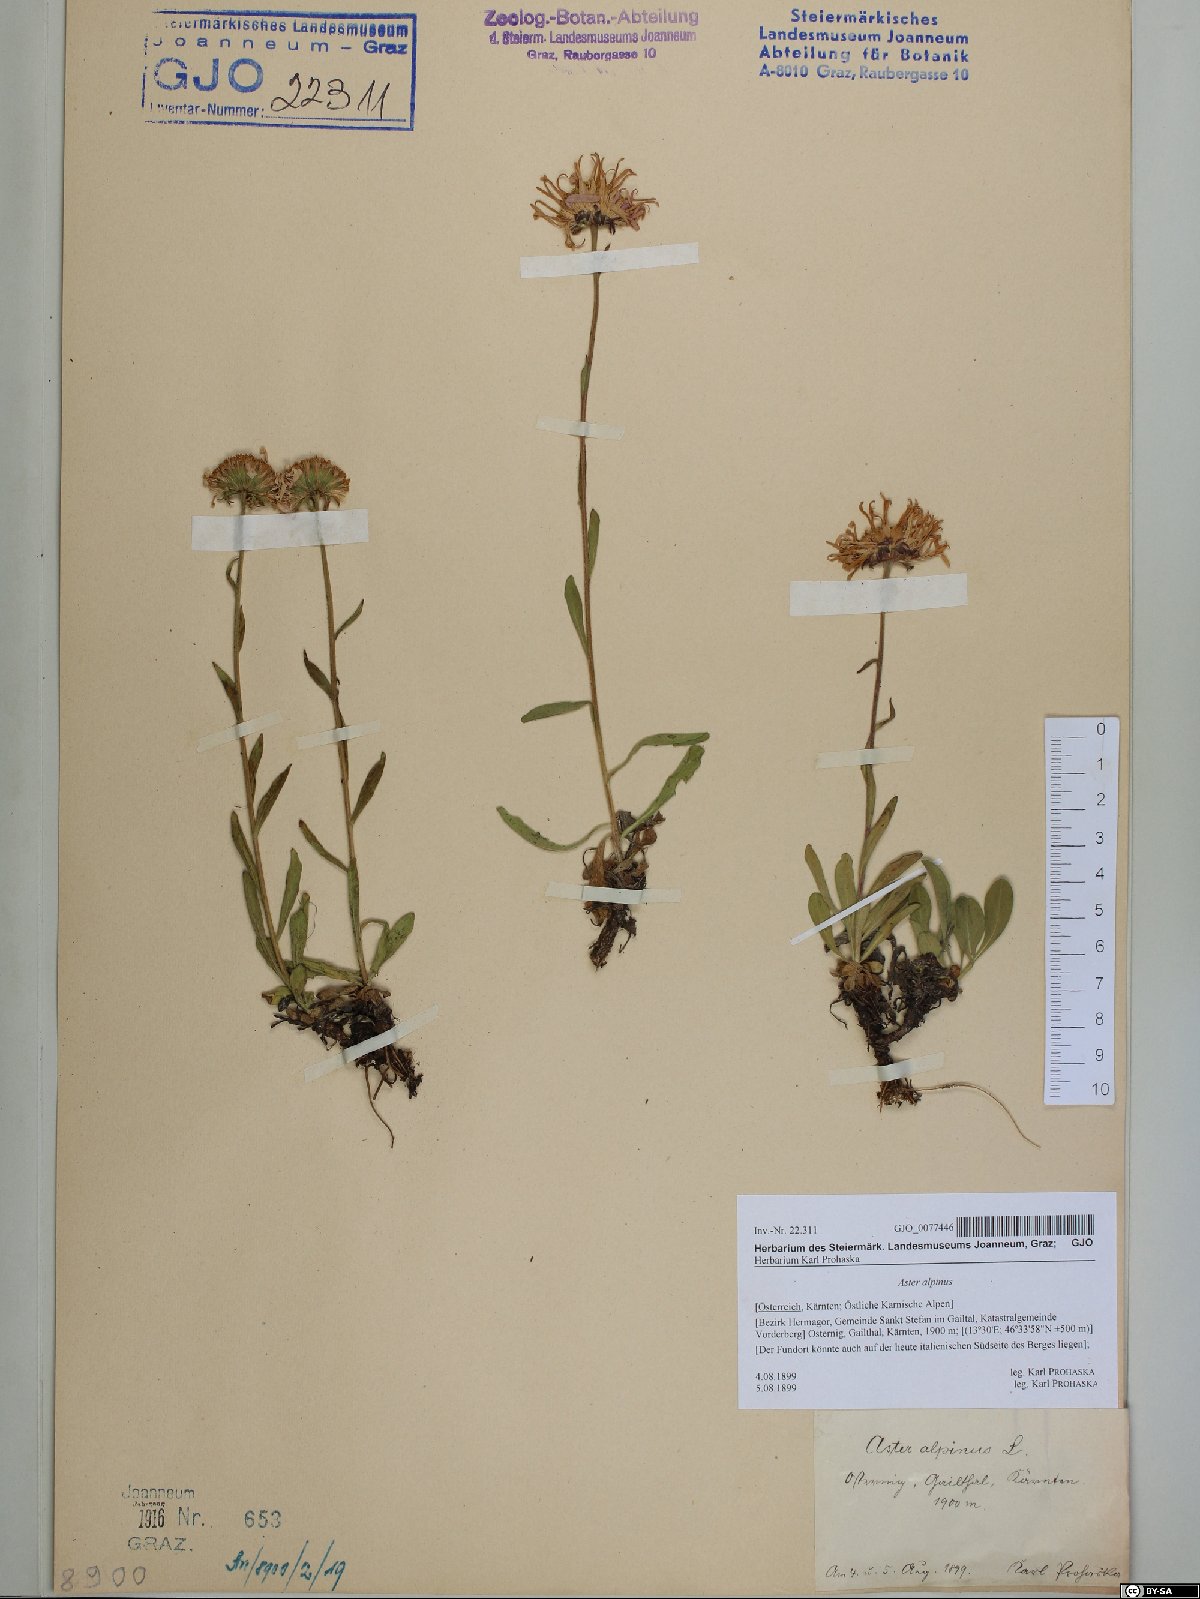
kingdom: Plantae
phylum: Tracheophyta
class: Magnoliopsida
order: Asterales
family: Asteraceae
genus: Aster
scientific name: Aster alpinus
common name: Alpine aster
